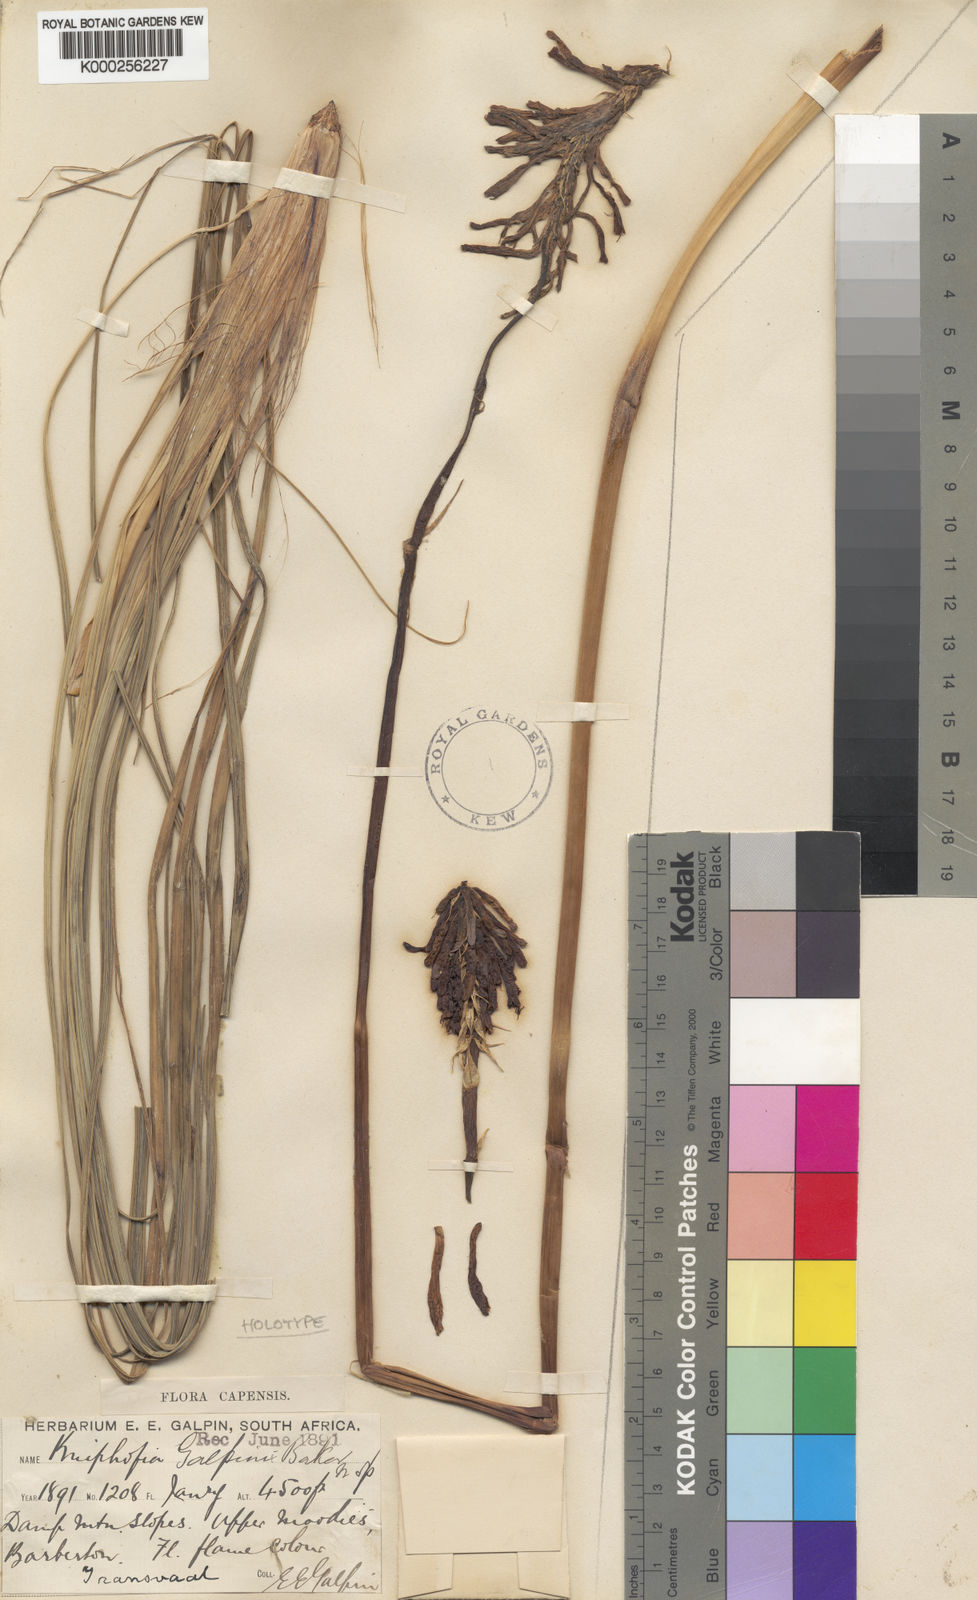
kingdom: Plantae
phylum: Tracheophyta
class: Liliopsida
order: Asparagales
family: Asphodelaceae
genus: Kniphofia
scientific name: Kniphofia galpinii
